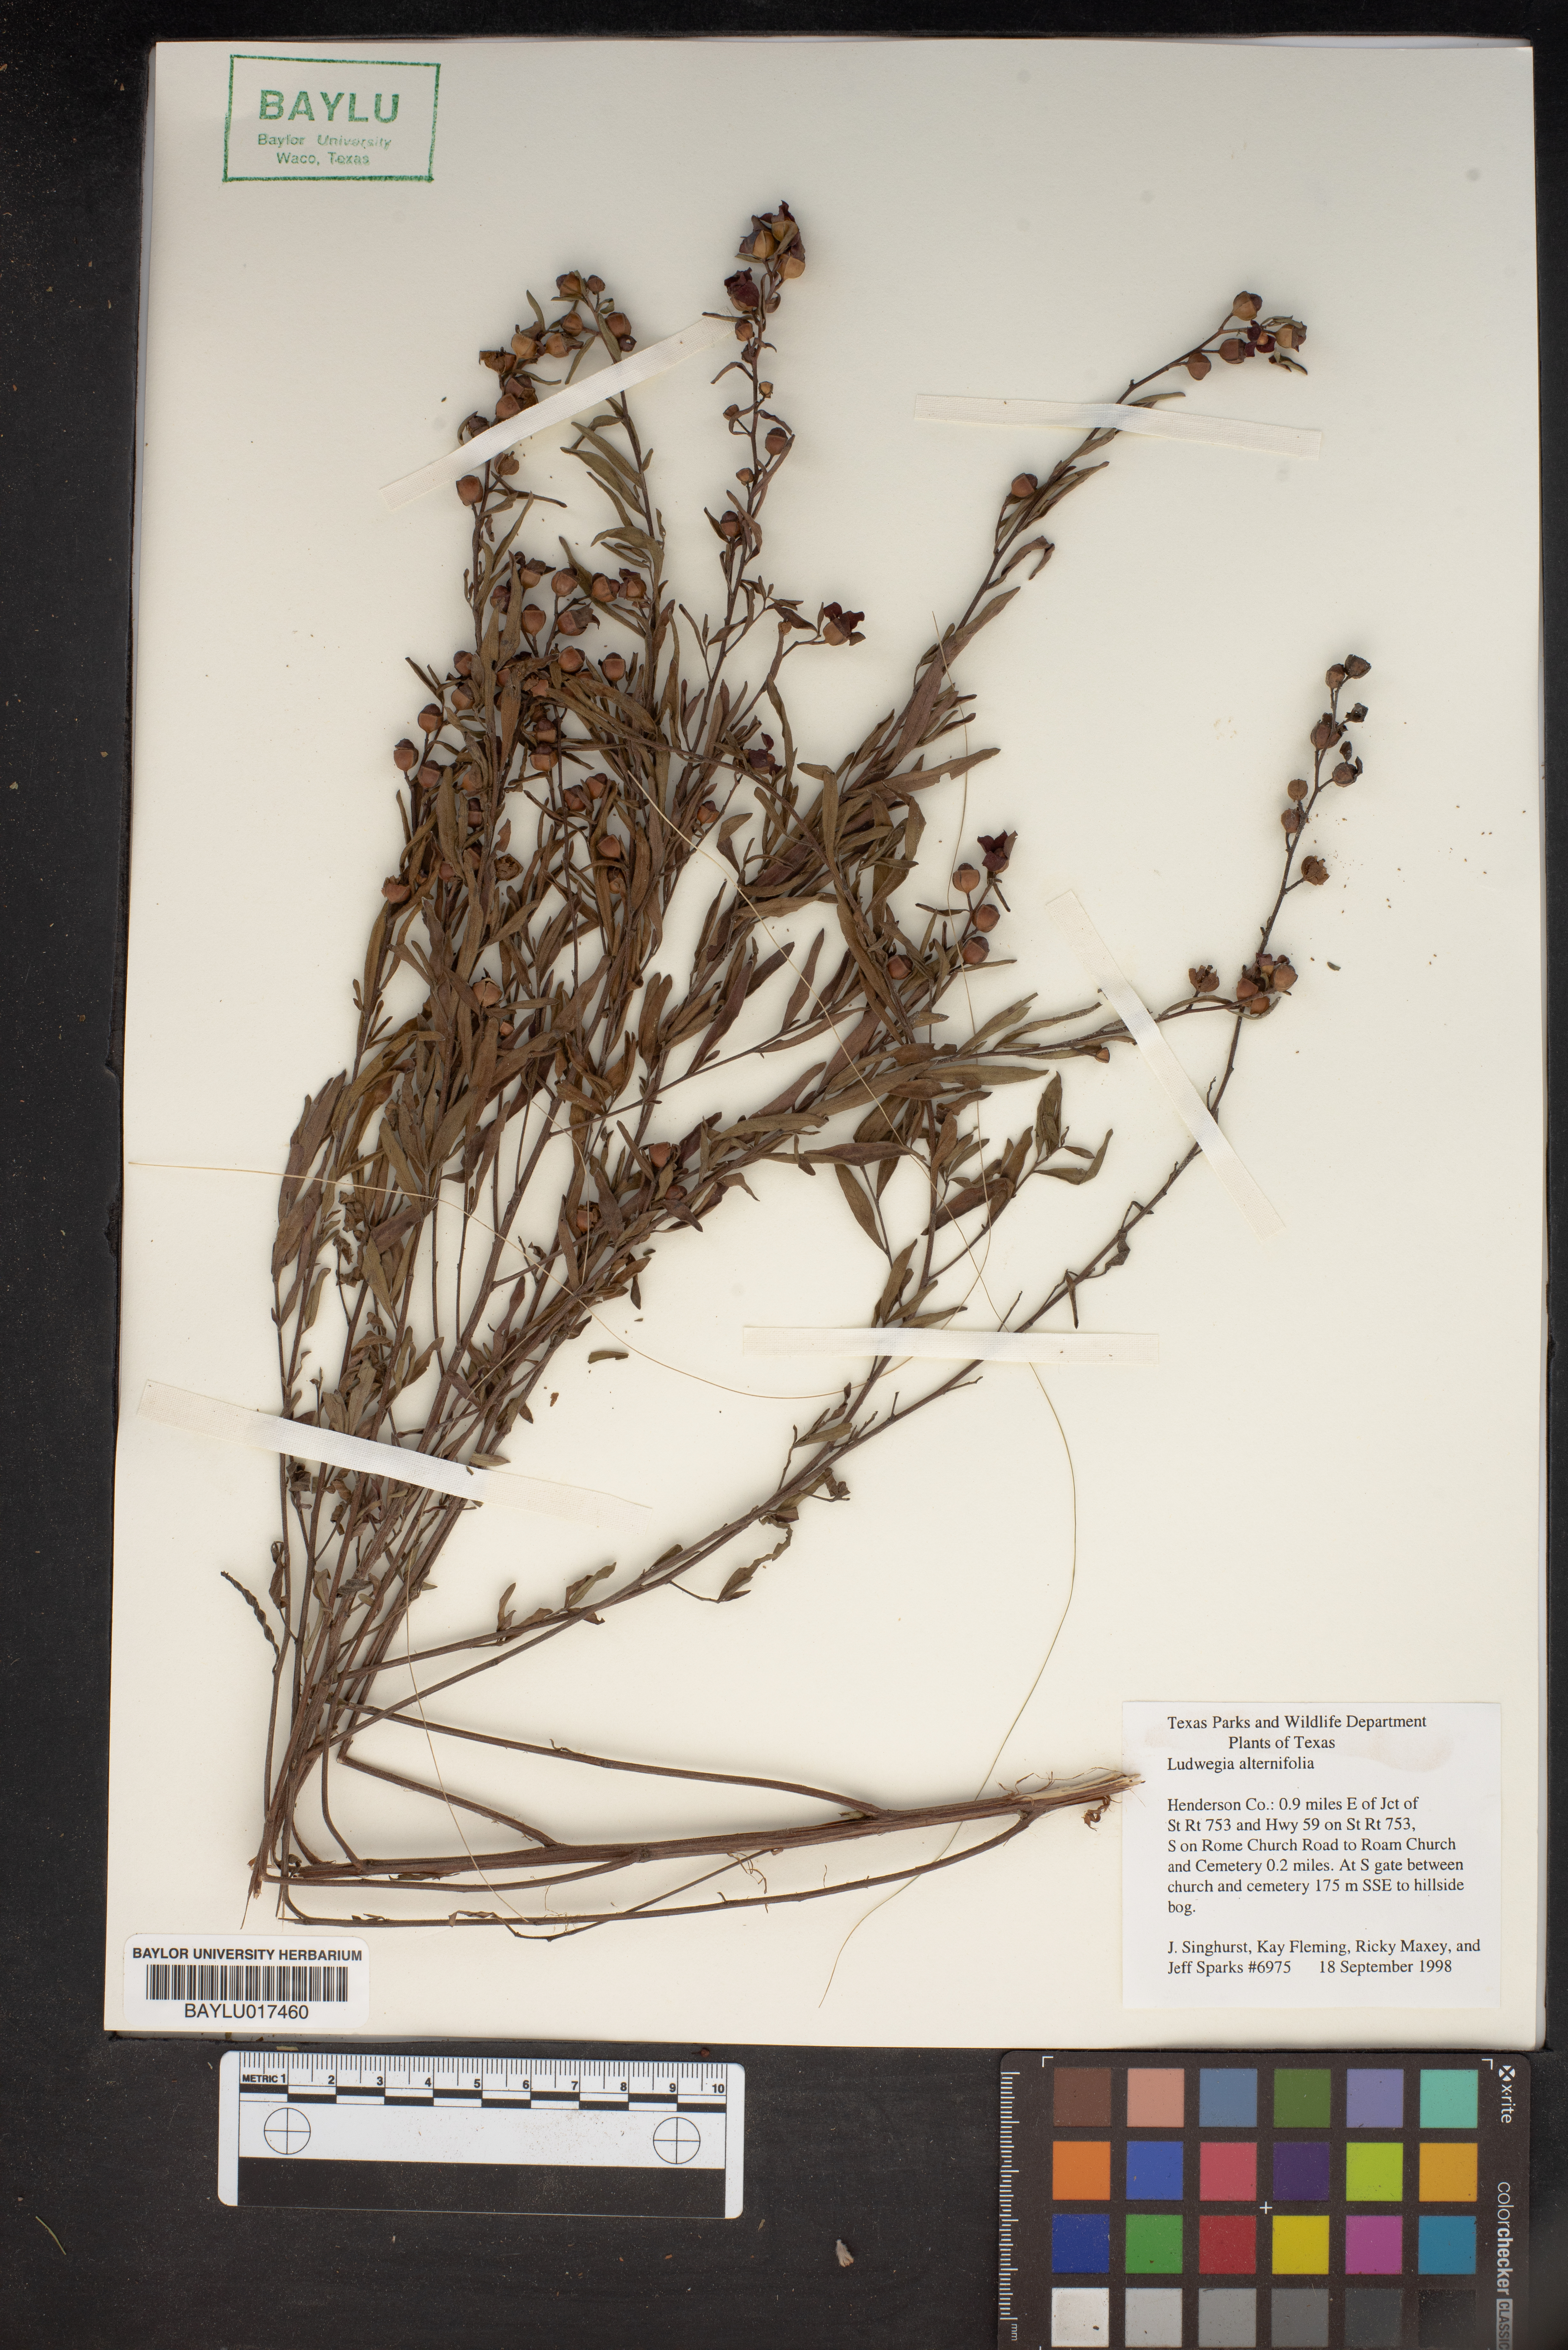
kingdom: Plantae
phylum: Tracheophyta
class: Magnoliopsida
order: Myrtales
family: Onagraceae
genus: Ludwigia
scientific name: Ludwigia alternifolia
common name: Rattlebox
